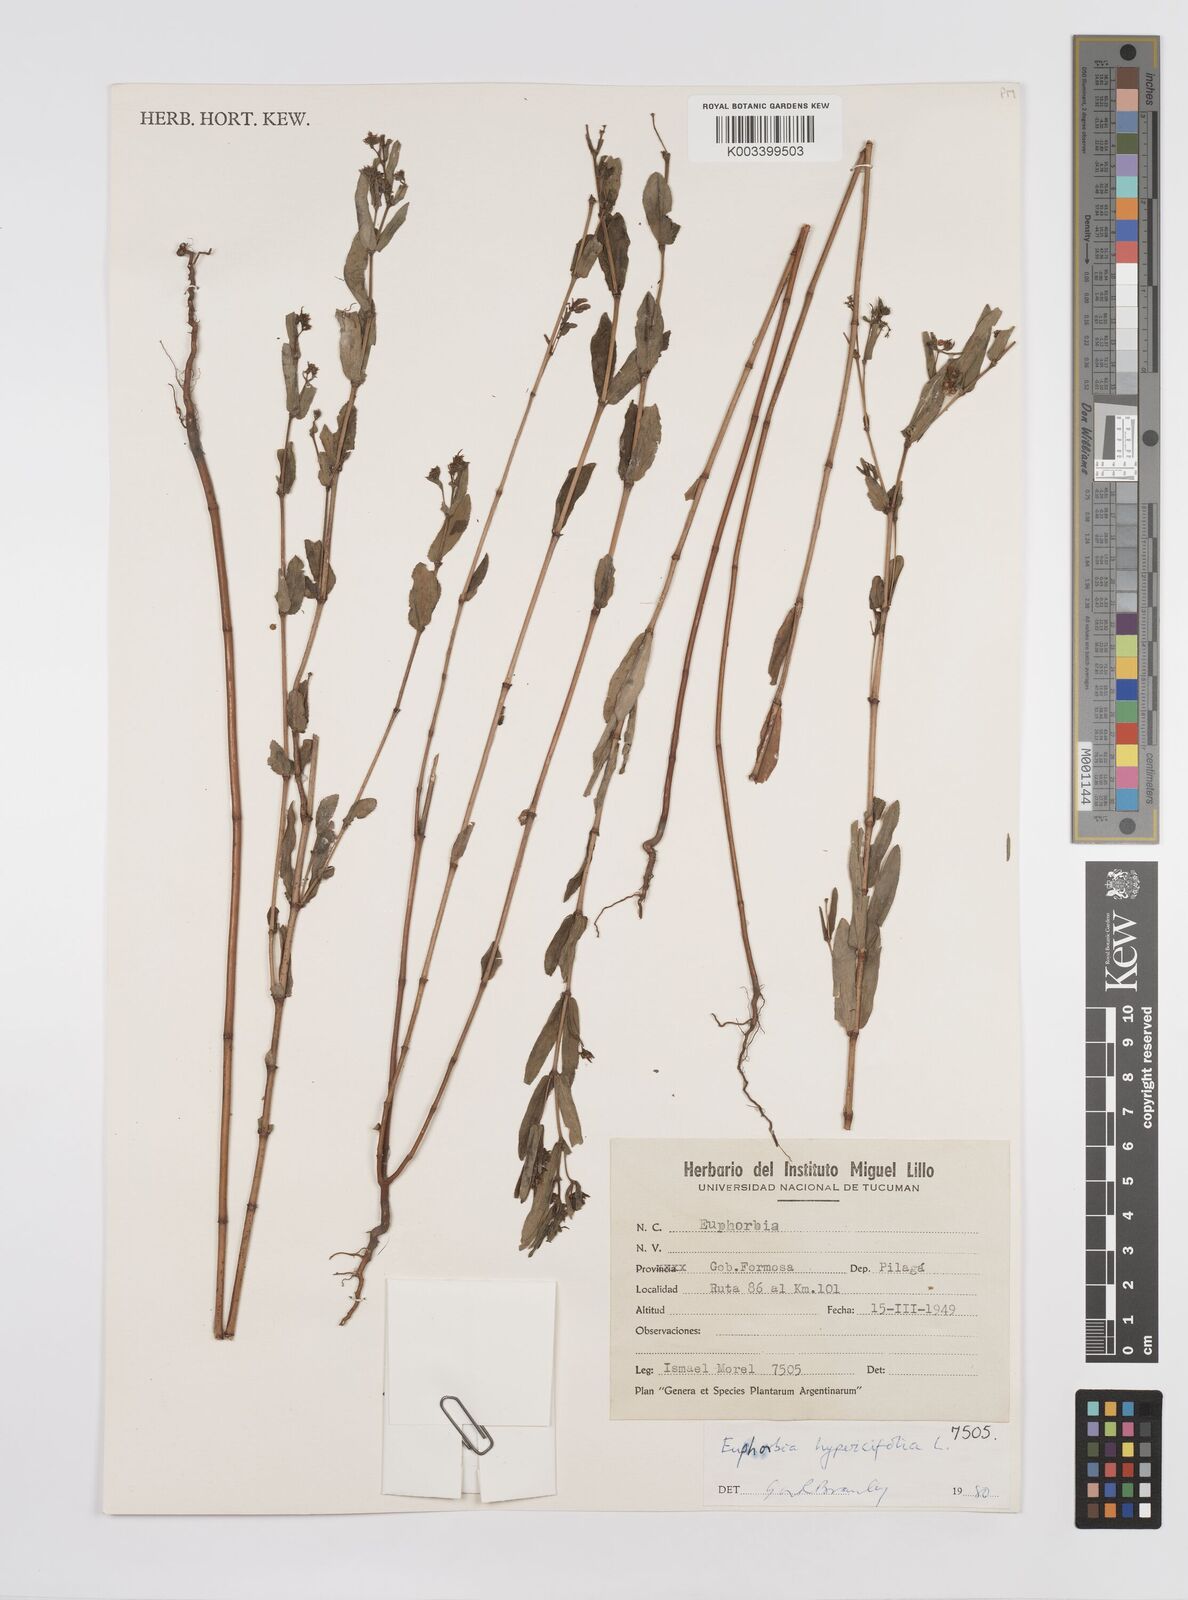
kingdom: Plantae
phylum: Tracheophyta
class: Magnoliopsida
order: Malpighiales
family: Euphorbiaceae
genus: Euphorbia
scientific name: Euphorbia hypericifolia
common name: Graceful sandmat
